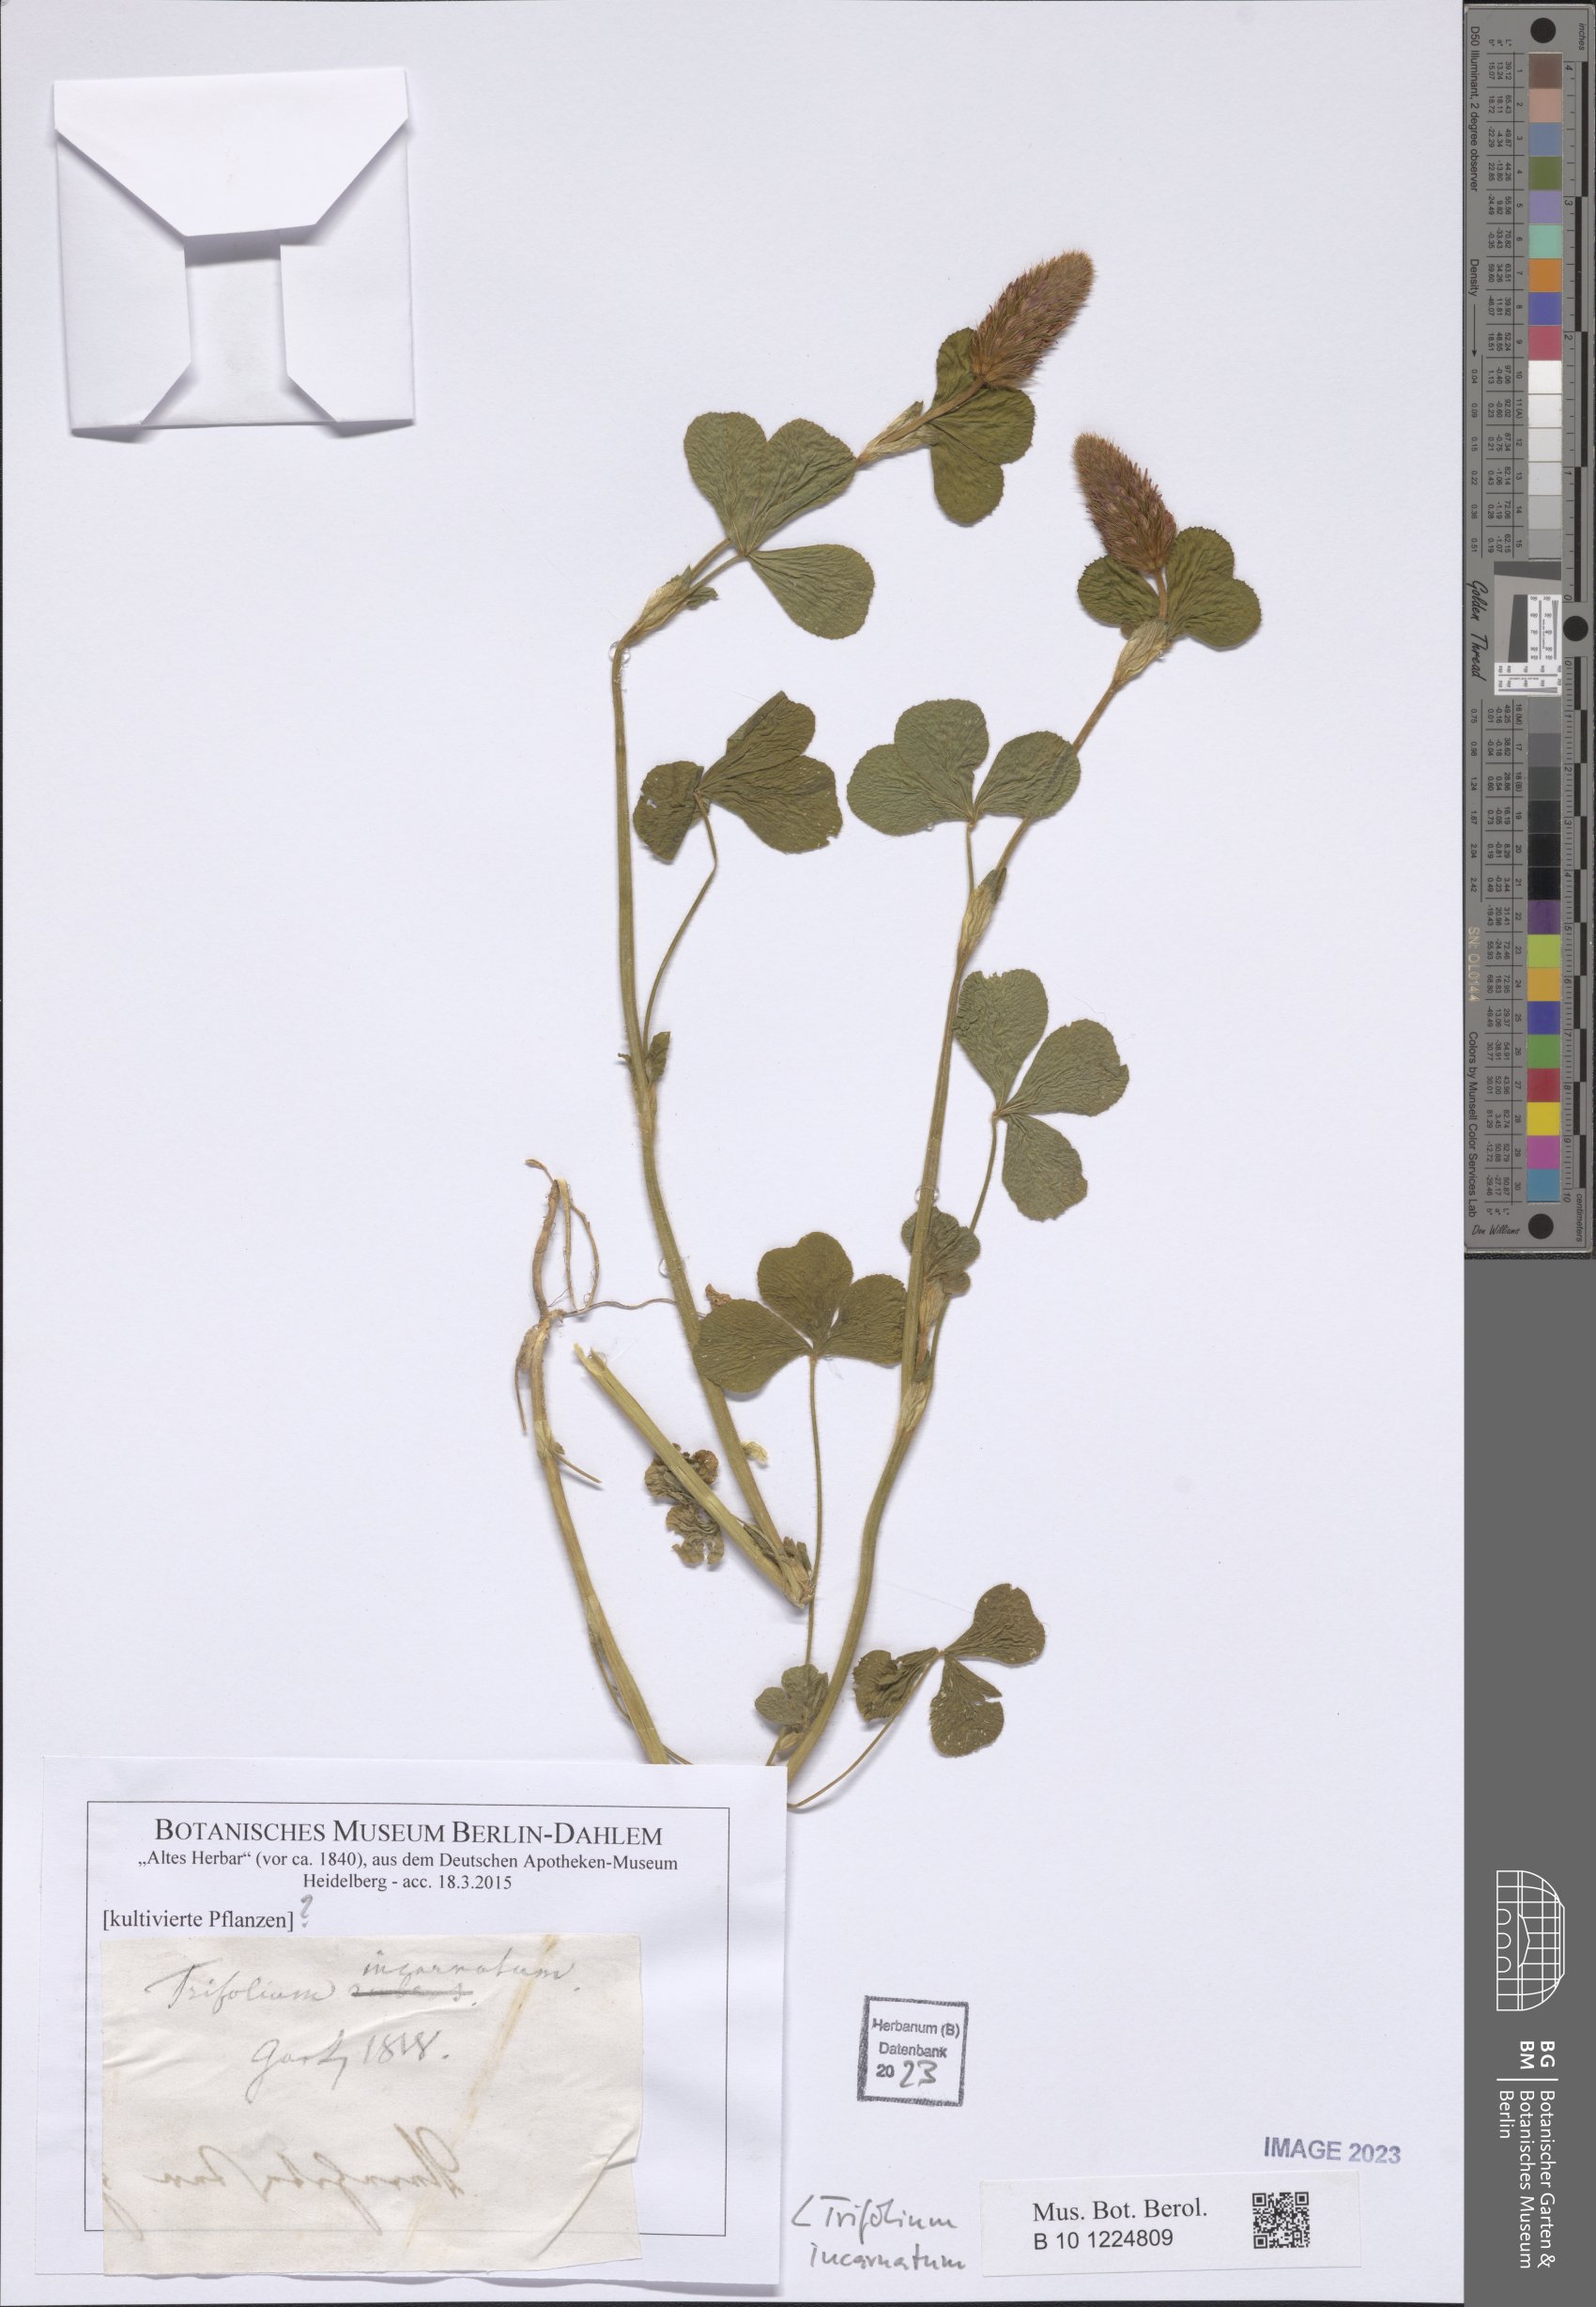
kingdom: Plantae
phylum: Tracheophyta
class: Magnoliopsida
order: Fabales
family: Fabaceae
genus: Trifolium
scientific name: Trifolium incarnatum
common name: Crimson clover
